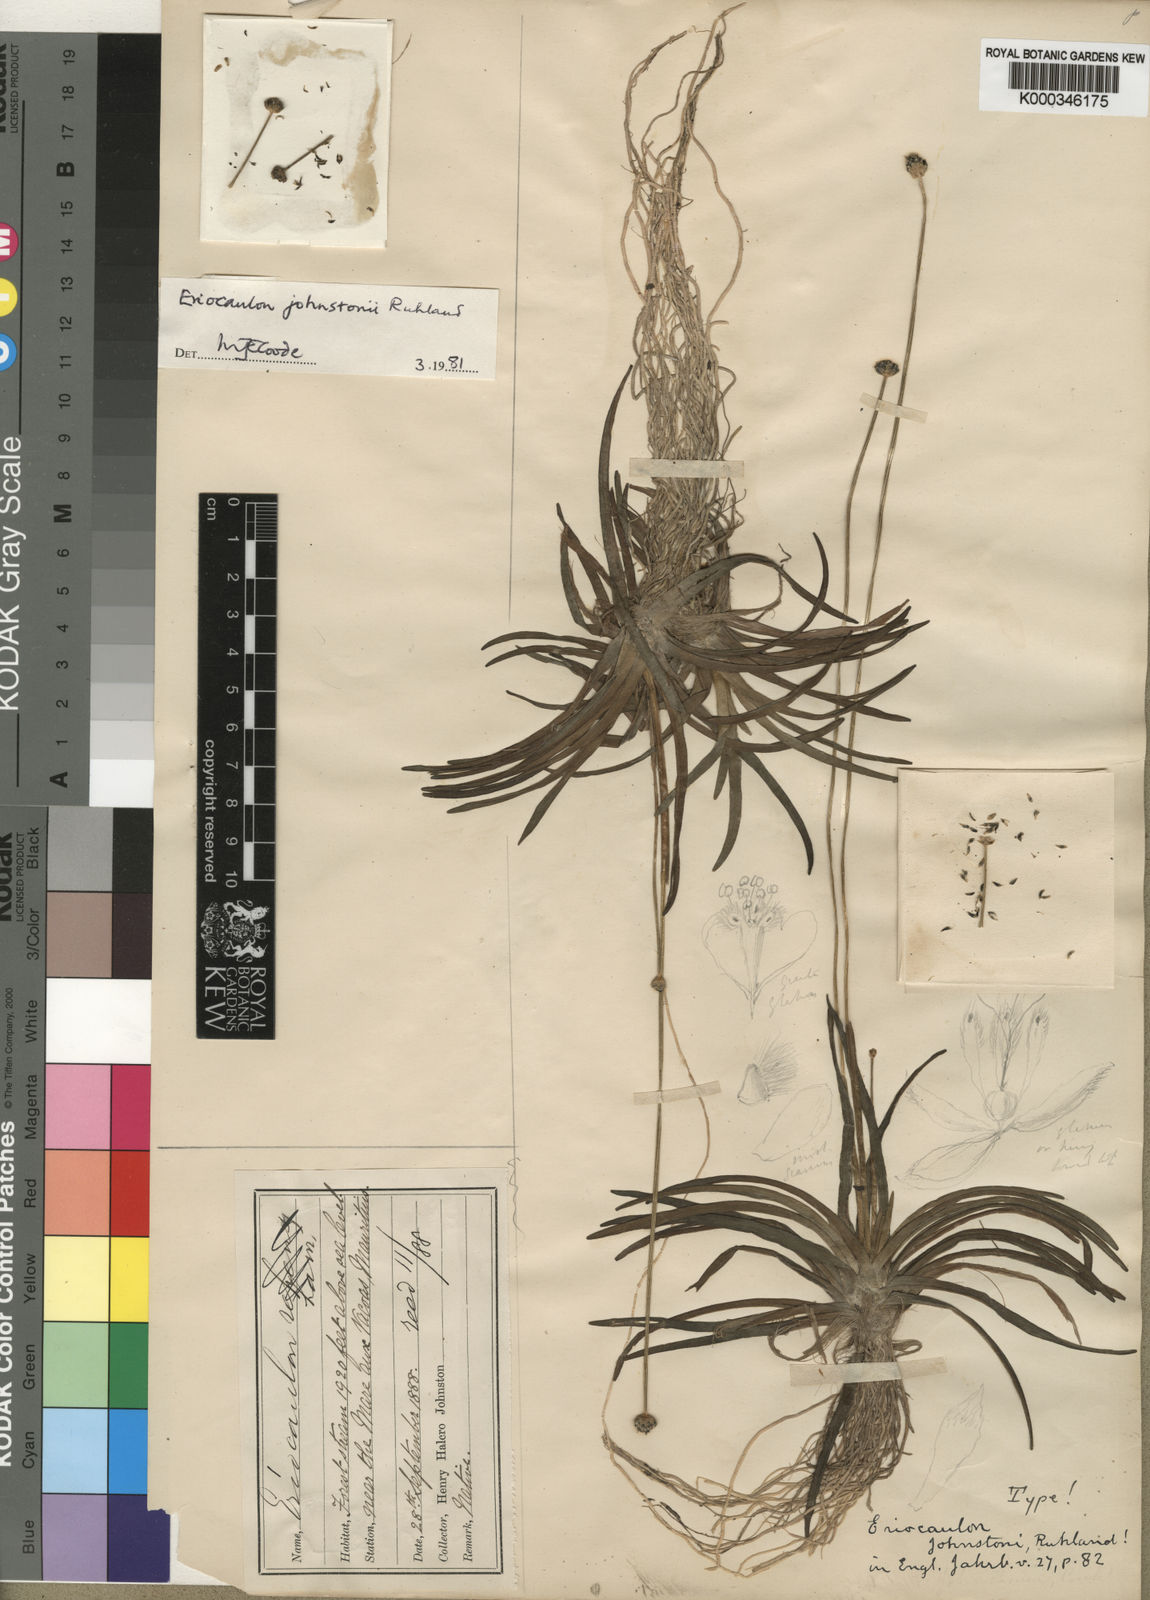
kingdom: Plantae
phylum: Tracheophyta
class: Liliopsida
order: Poales
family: Eriocaulaceae
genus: Eriocaulon
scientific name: Eriocaulon johnstonii
